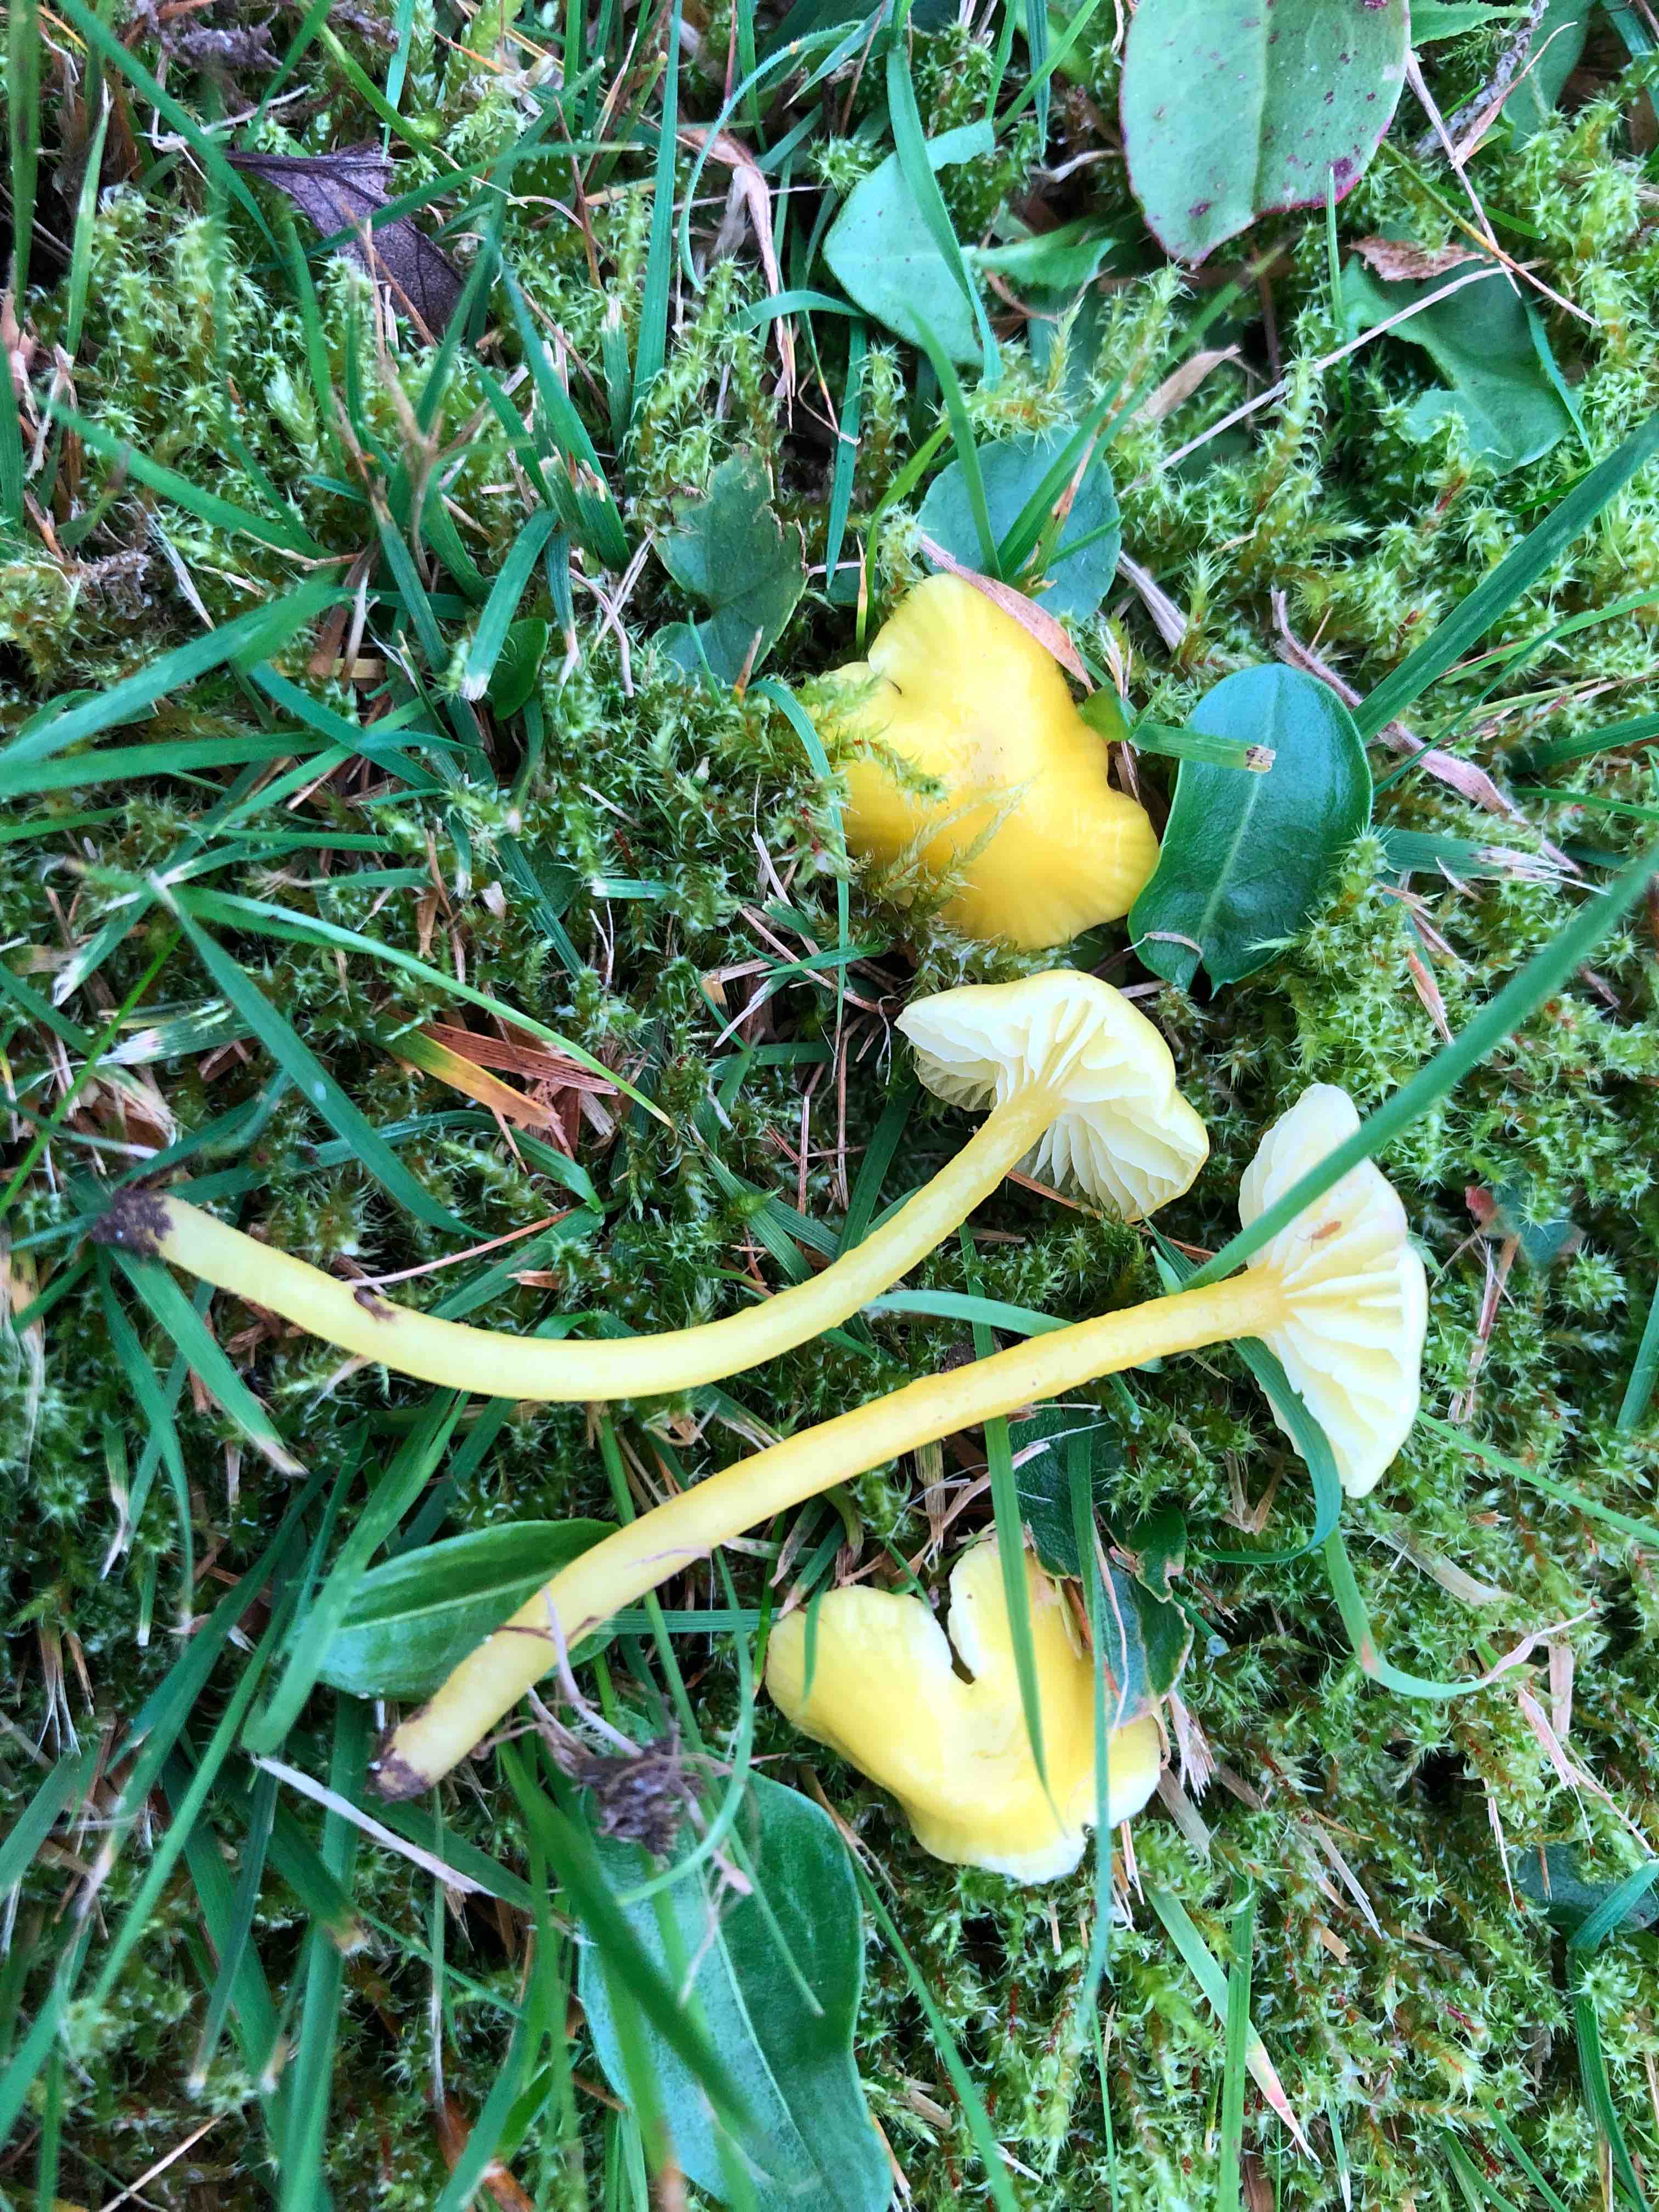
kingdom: Fungi
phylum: Basidiomycota
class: Agaricomycetes
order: Agaricales
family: Hygrophoraceae
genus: Hygrocybe
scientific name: Hygrocybe glutinipes
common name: slimstokket vokshat
